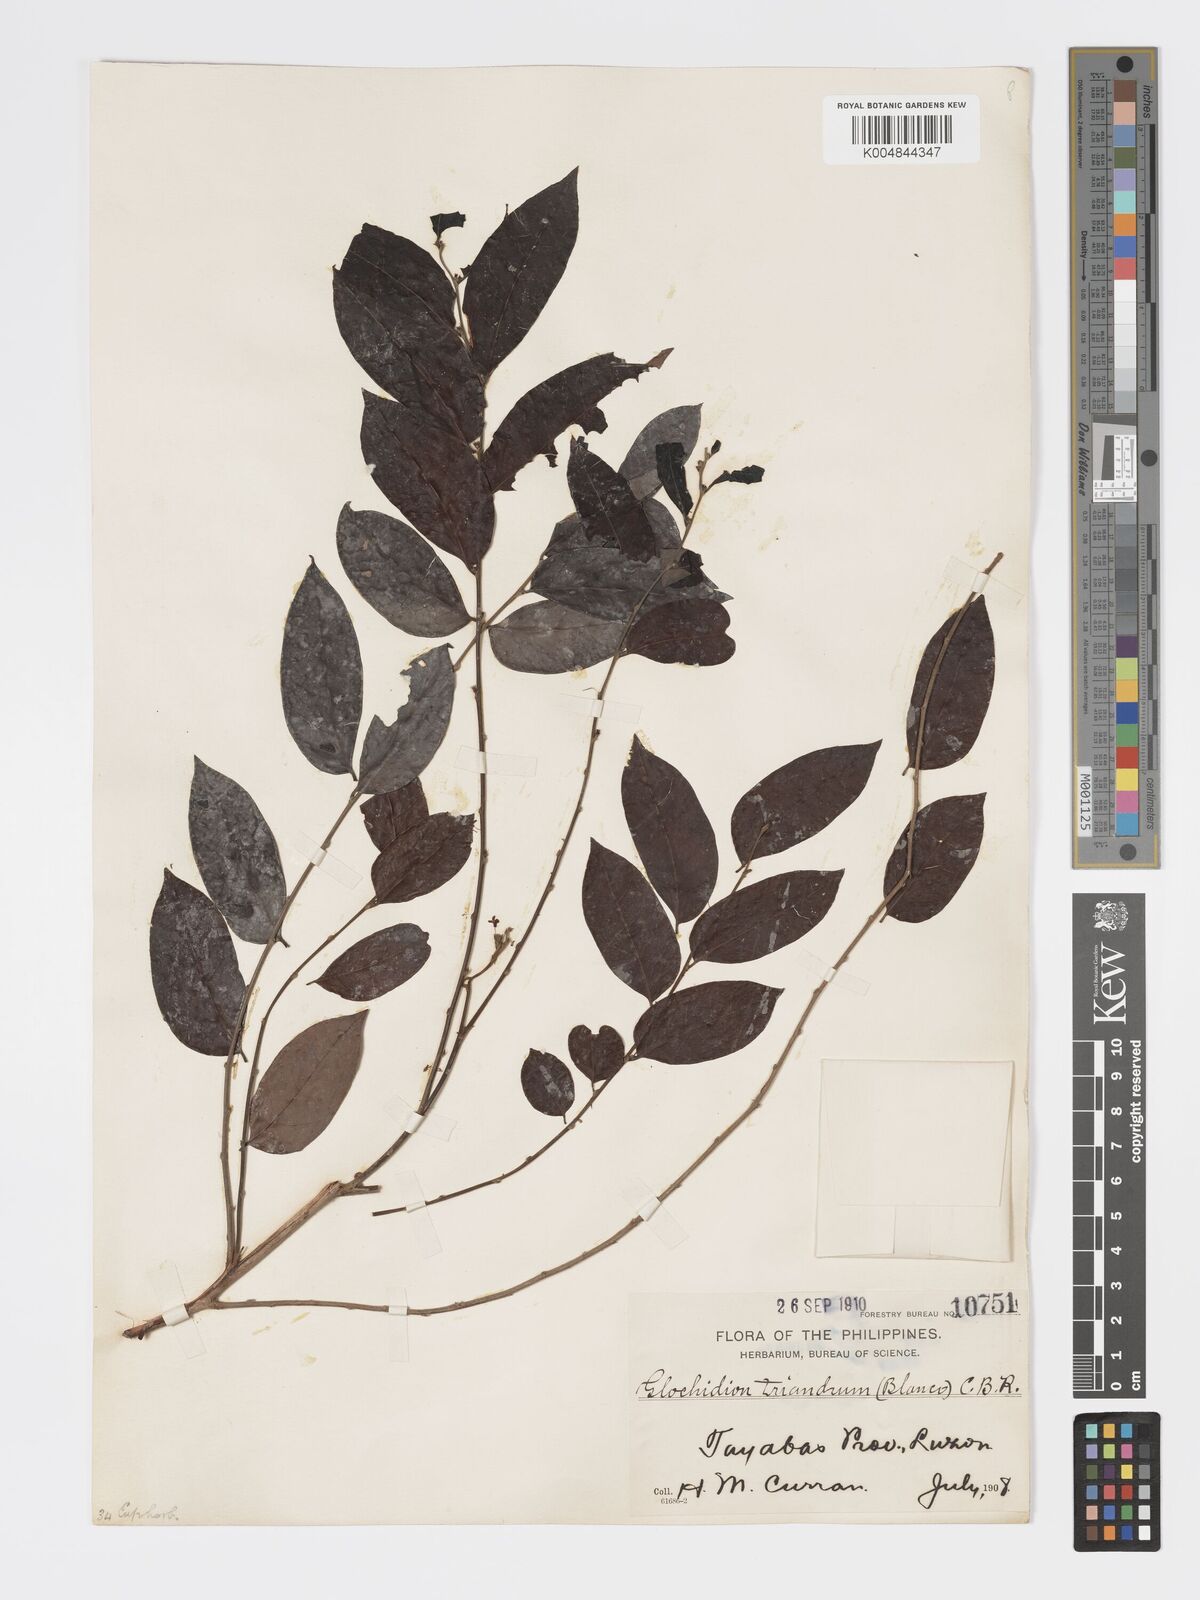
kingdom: Plantae
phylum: Tracheophyta
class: Magnoliopsida
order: Malpighiales
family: Phyllanthaceae
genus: Glochidion
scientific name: Glochidion triandrum
